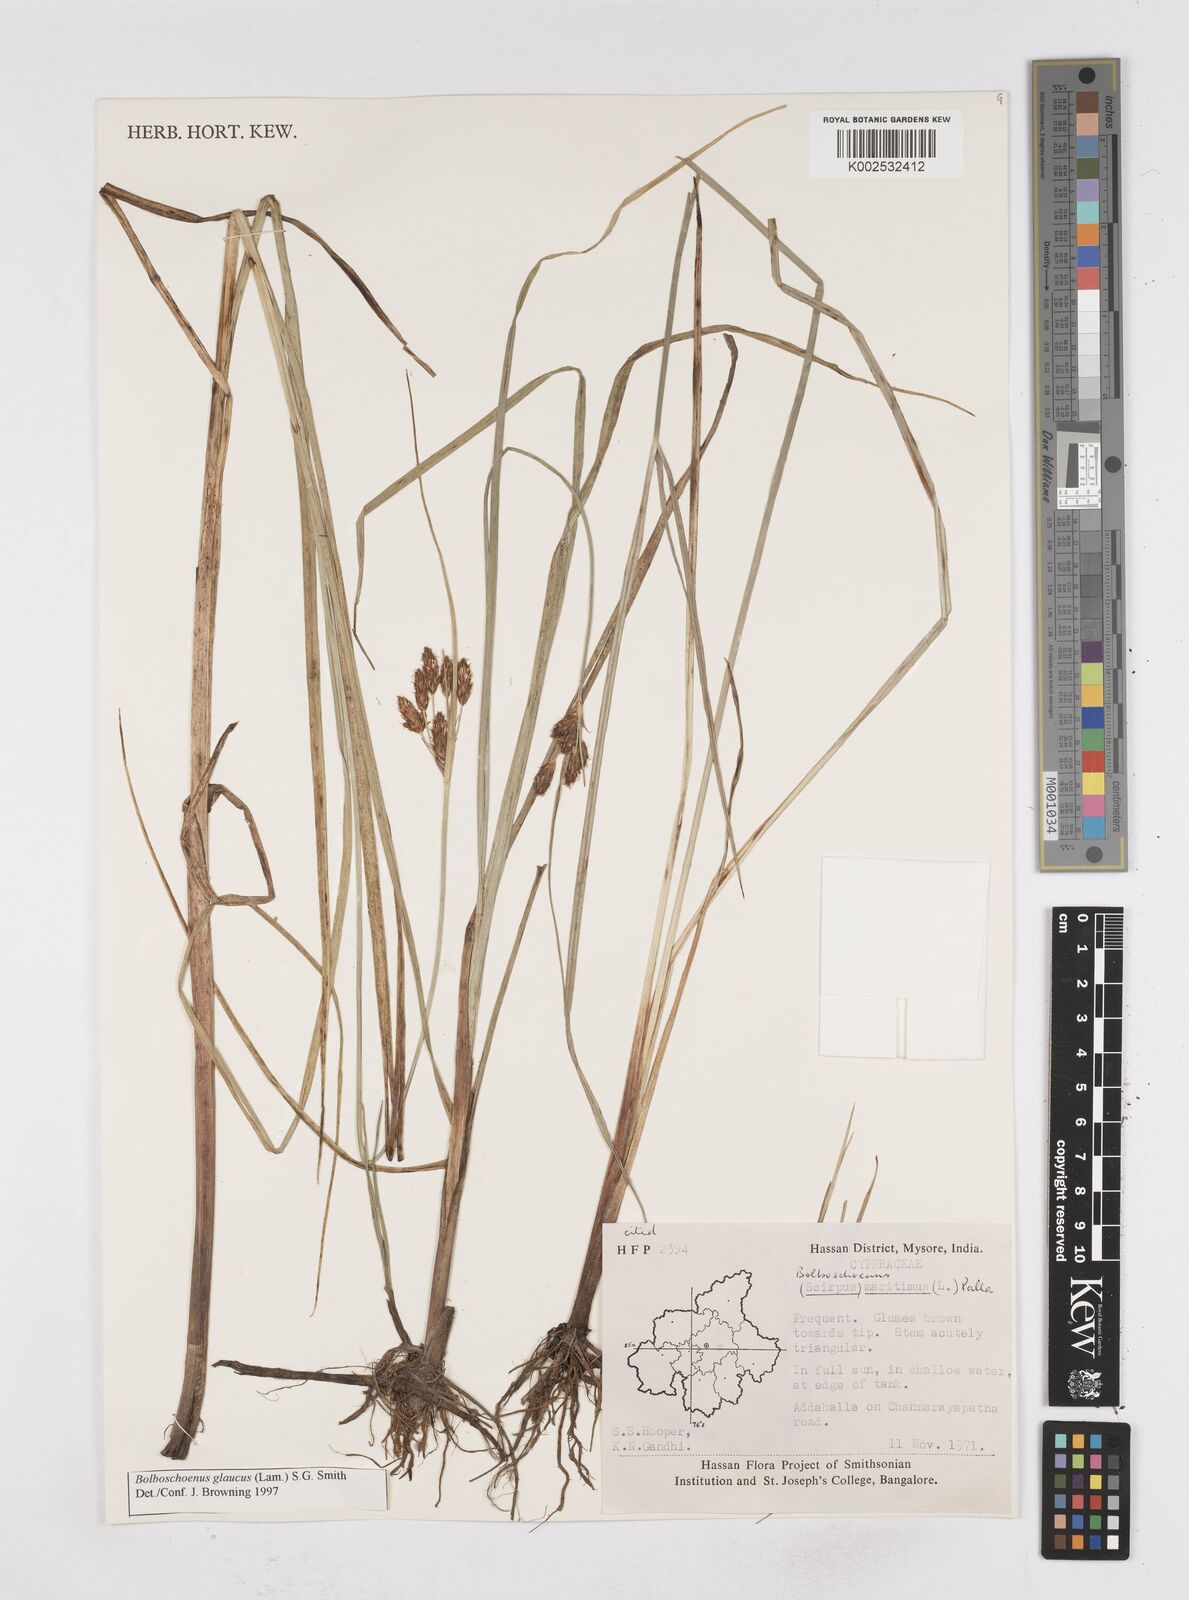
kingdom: Plantae
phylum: Tracheophyta
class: Liliopsida
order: Poales
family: Cyperaceae
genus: Bolboschoenus
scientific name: Bolboschoenus maritimus
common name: Sea club-rush
